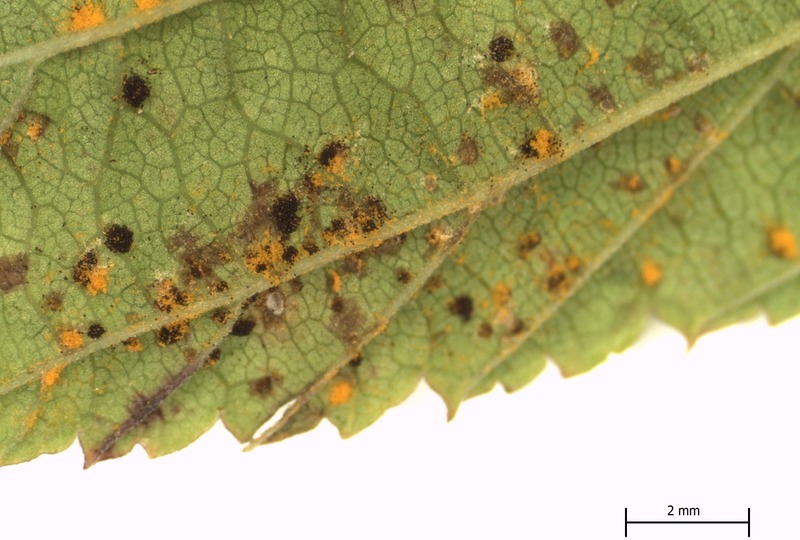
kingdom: Fungi
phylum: Basidiomycota
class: Pucciniomycetes
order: Pucciniales
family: Raveneliaceae
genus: Triphragmium
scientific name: Triphragmium ulmariae
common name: Meadowsweet rust
